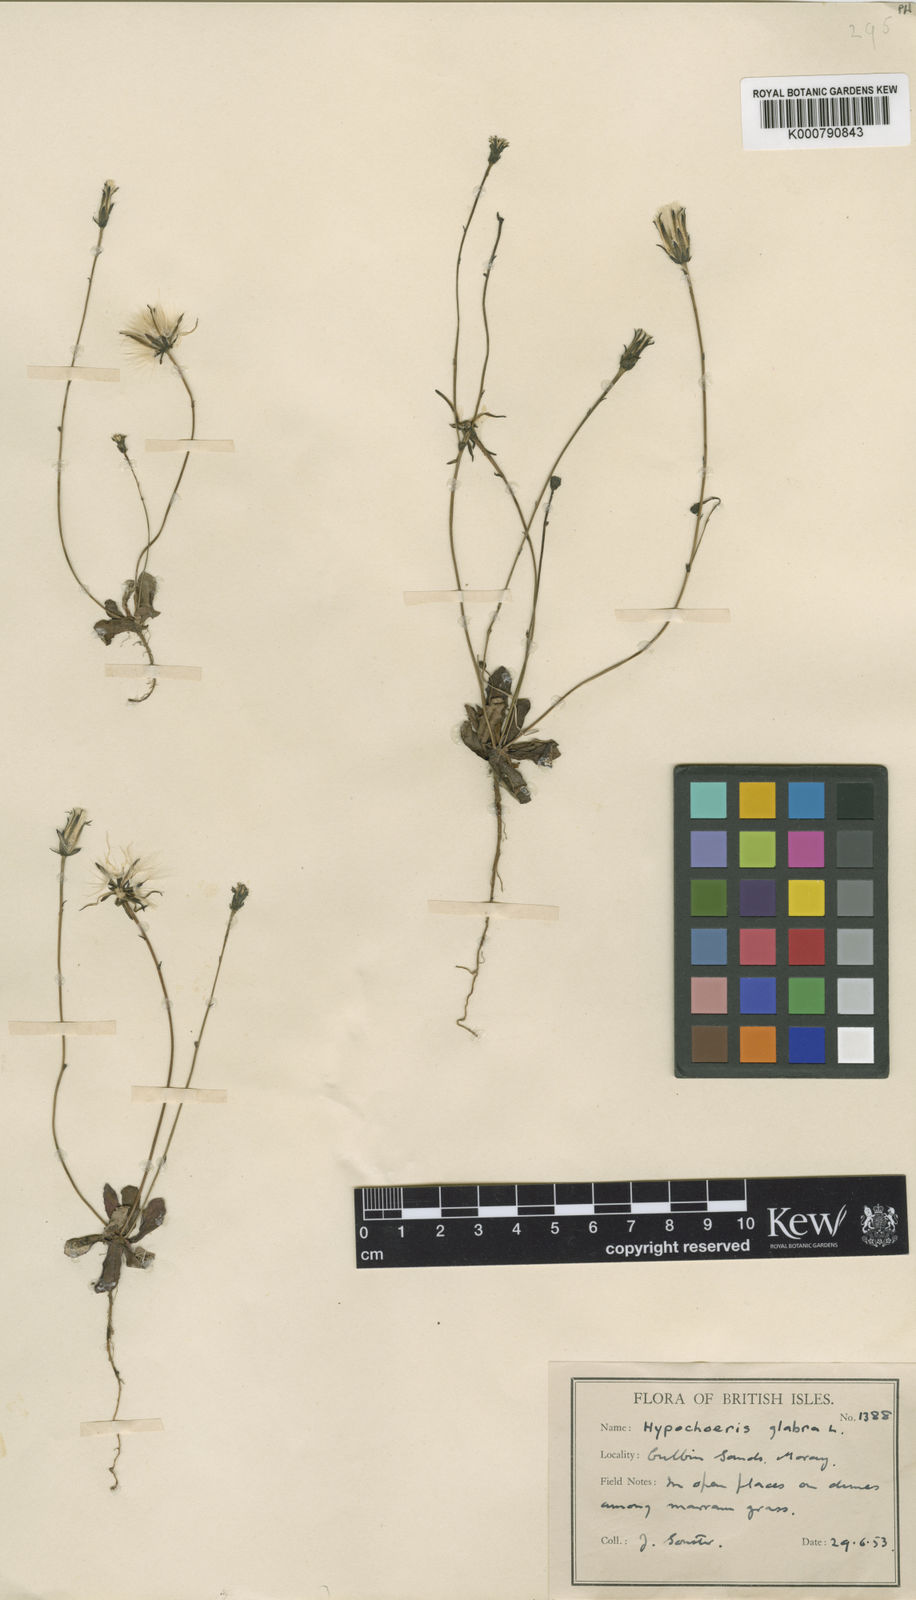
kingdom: Plantae
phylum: Tracheophyta
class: Magnoliopsida
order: Asterales
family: Asteraceae
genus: Hypochaeris
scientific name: Hypochaeris glabra
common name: Smooth catsear
